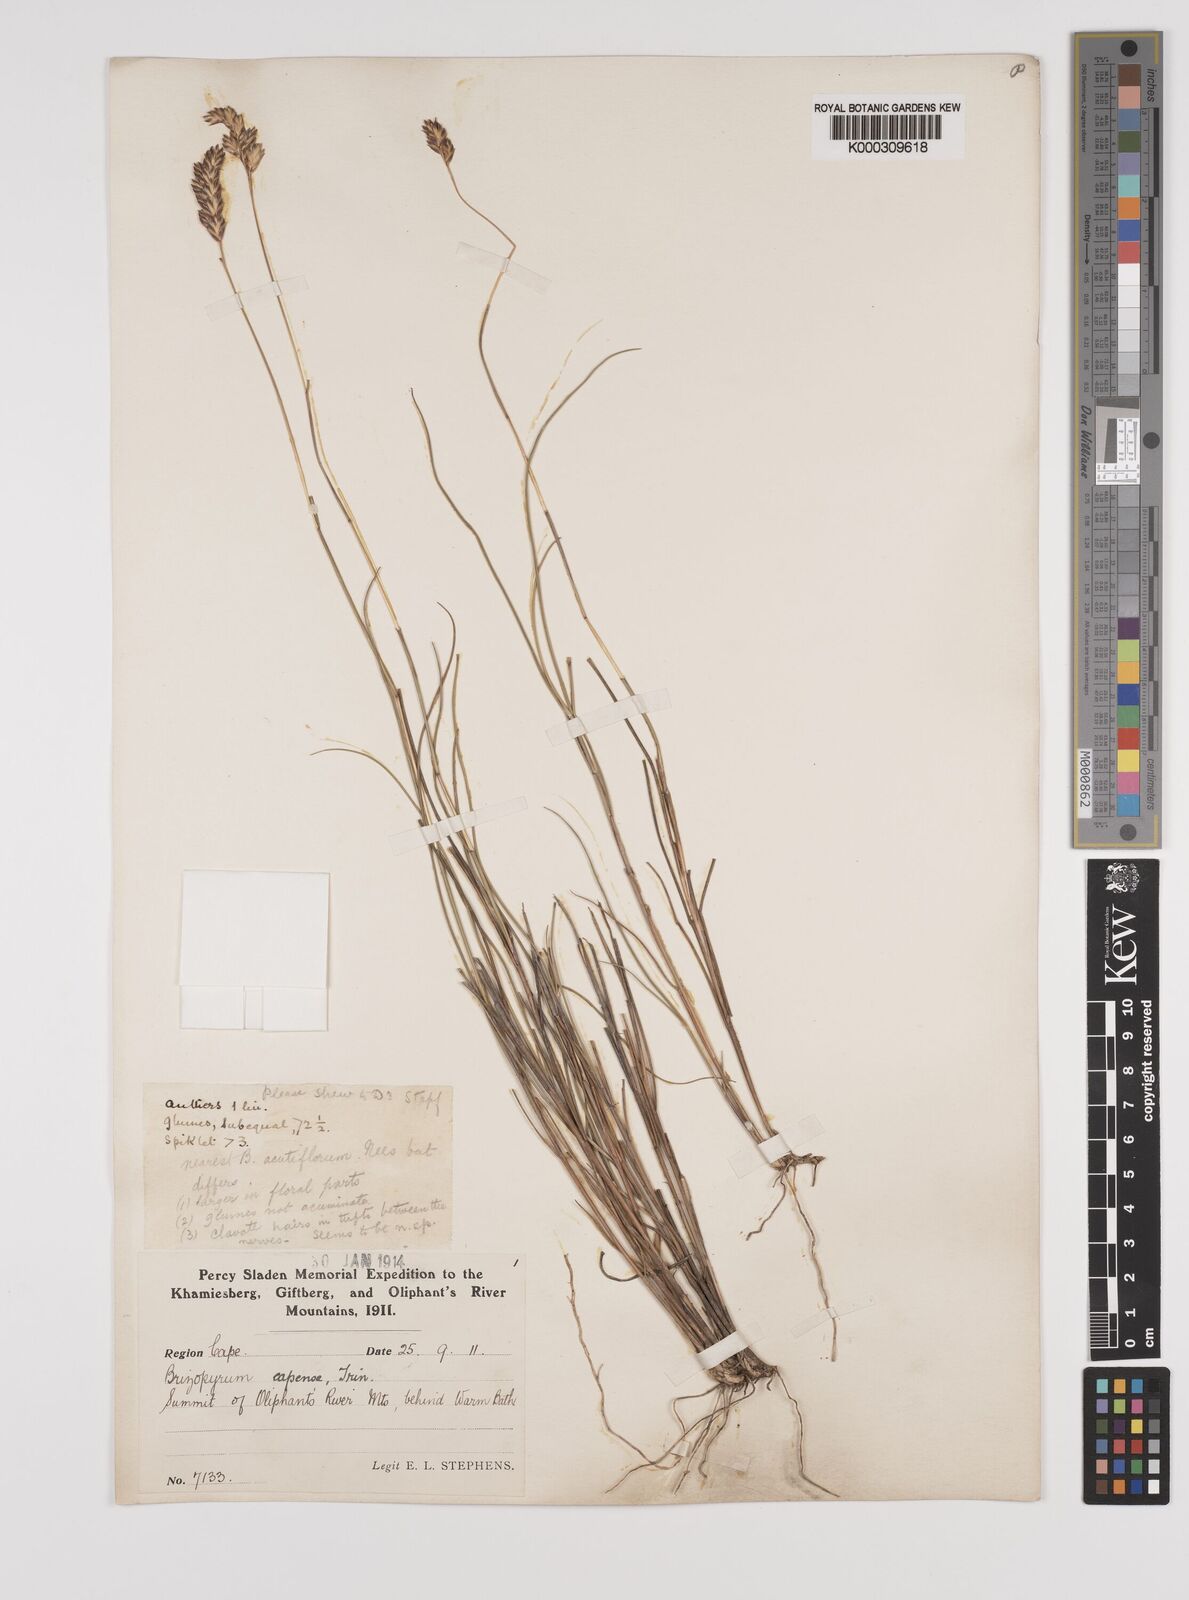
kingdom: Plantae
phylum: Tracheophyta
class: Liliopsida
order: Poales
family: Poaceae
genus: Tribolium
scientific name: Tribolium uniolae
